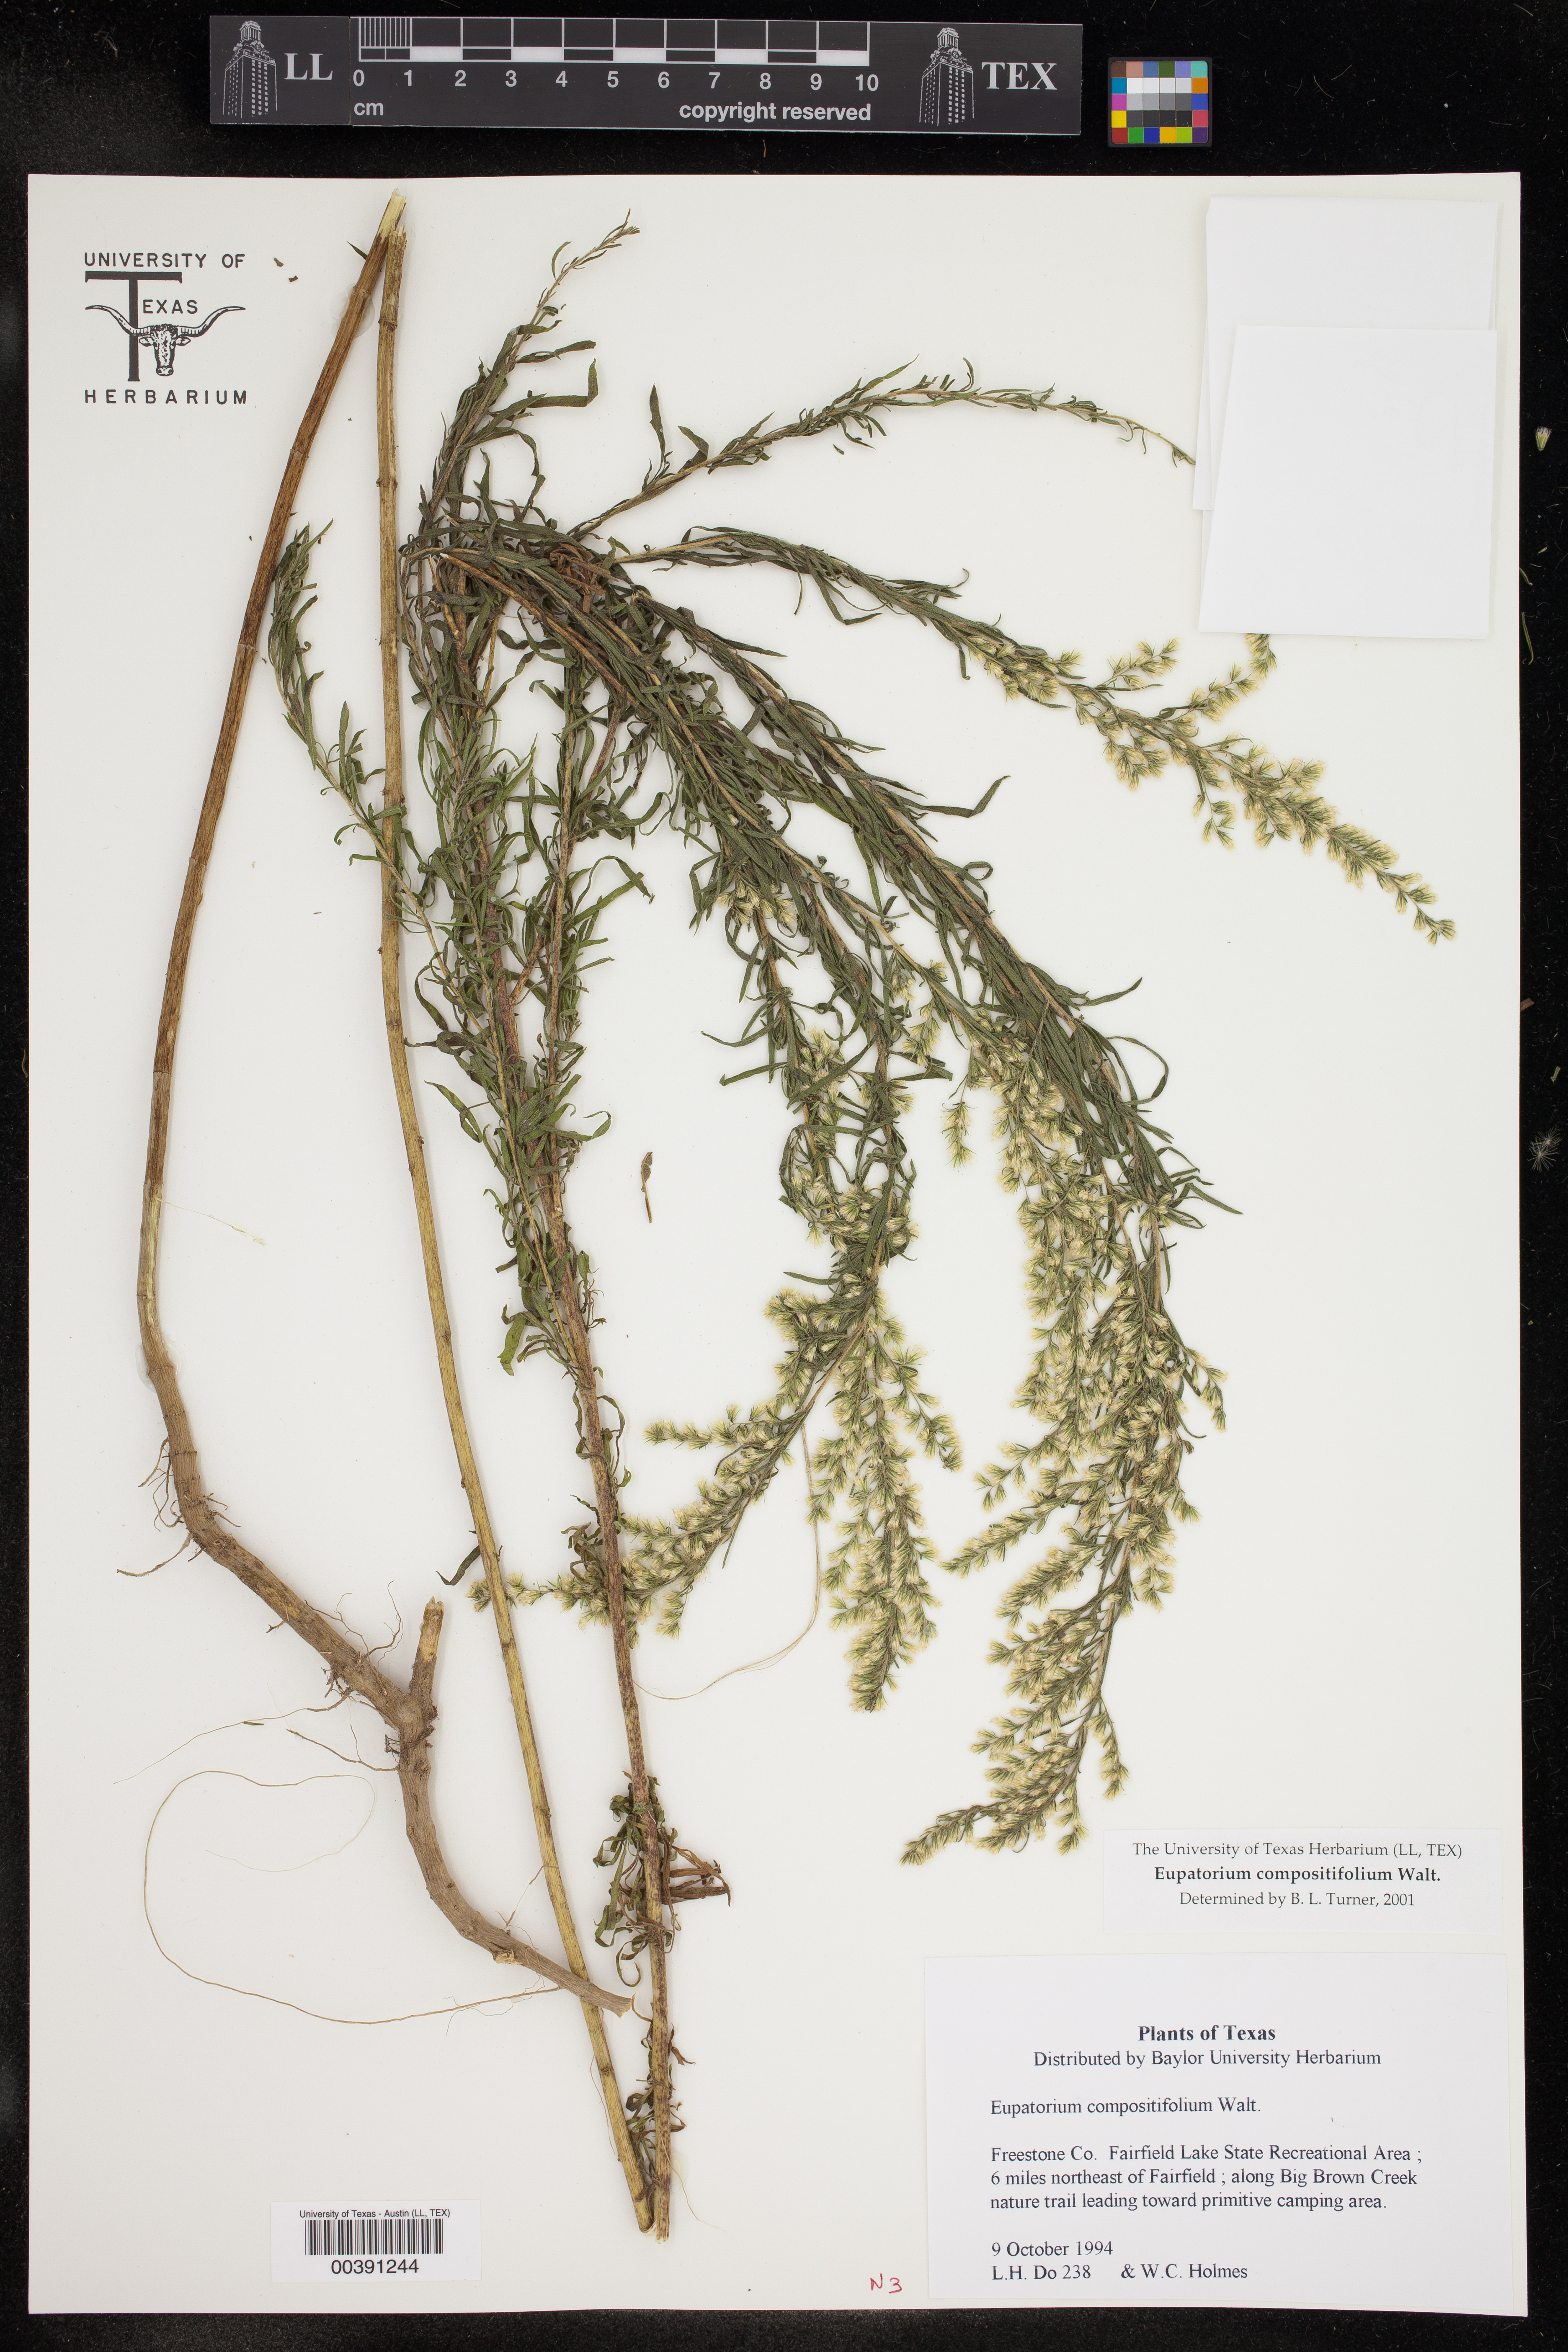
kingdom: Plantae
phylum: Tracheophyta
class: Magnoliopsida
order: Asterales
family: Asteraceae
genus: Eupatorium
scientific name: Eupatorium compositifolium
